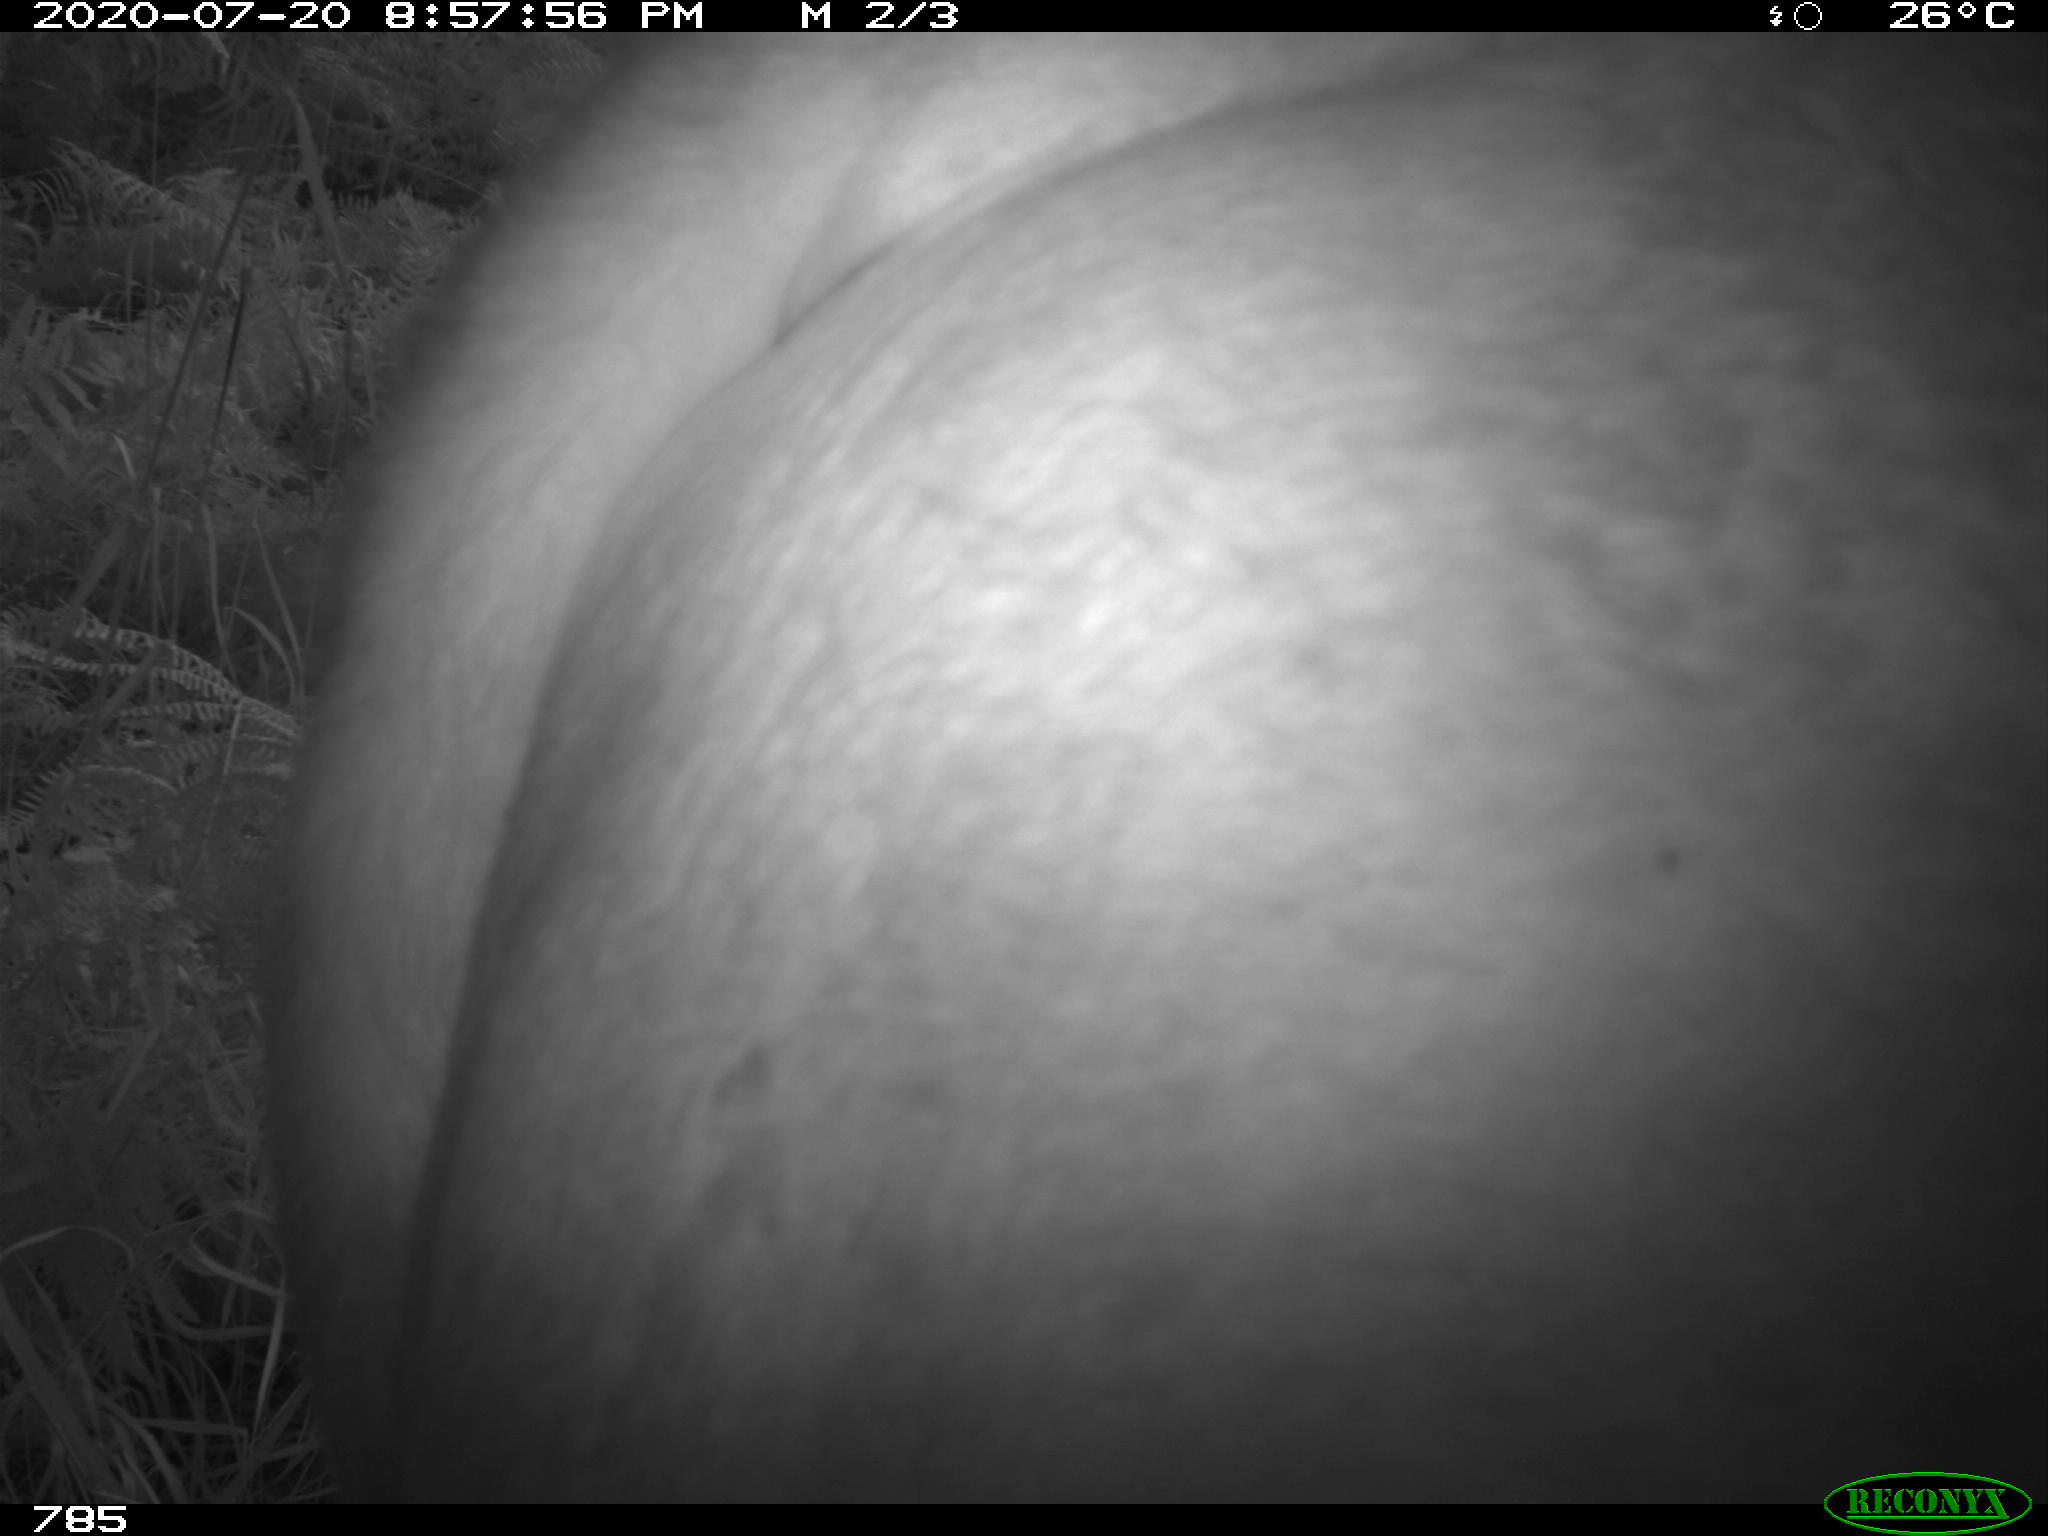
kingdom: Animalia
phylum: Chordata
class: Mammalia
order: Artiodactyla
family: Bovidae
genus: Bos
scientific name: Bos taurus
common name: Domesticated cattle
